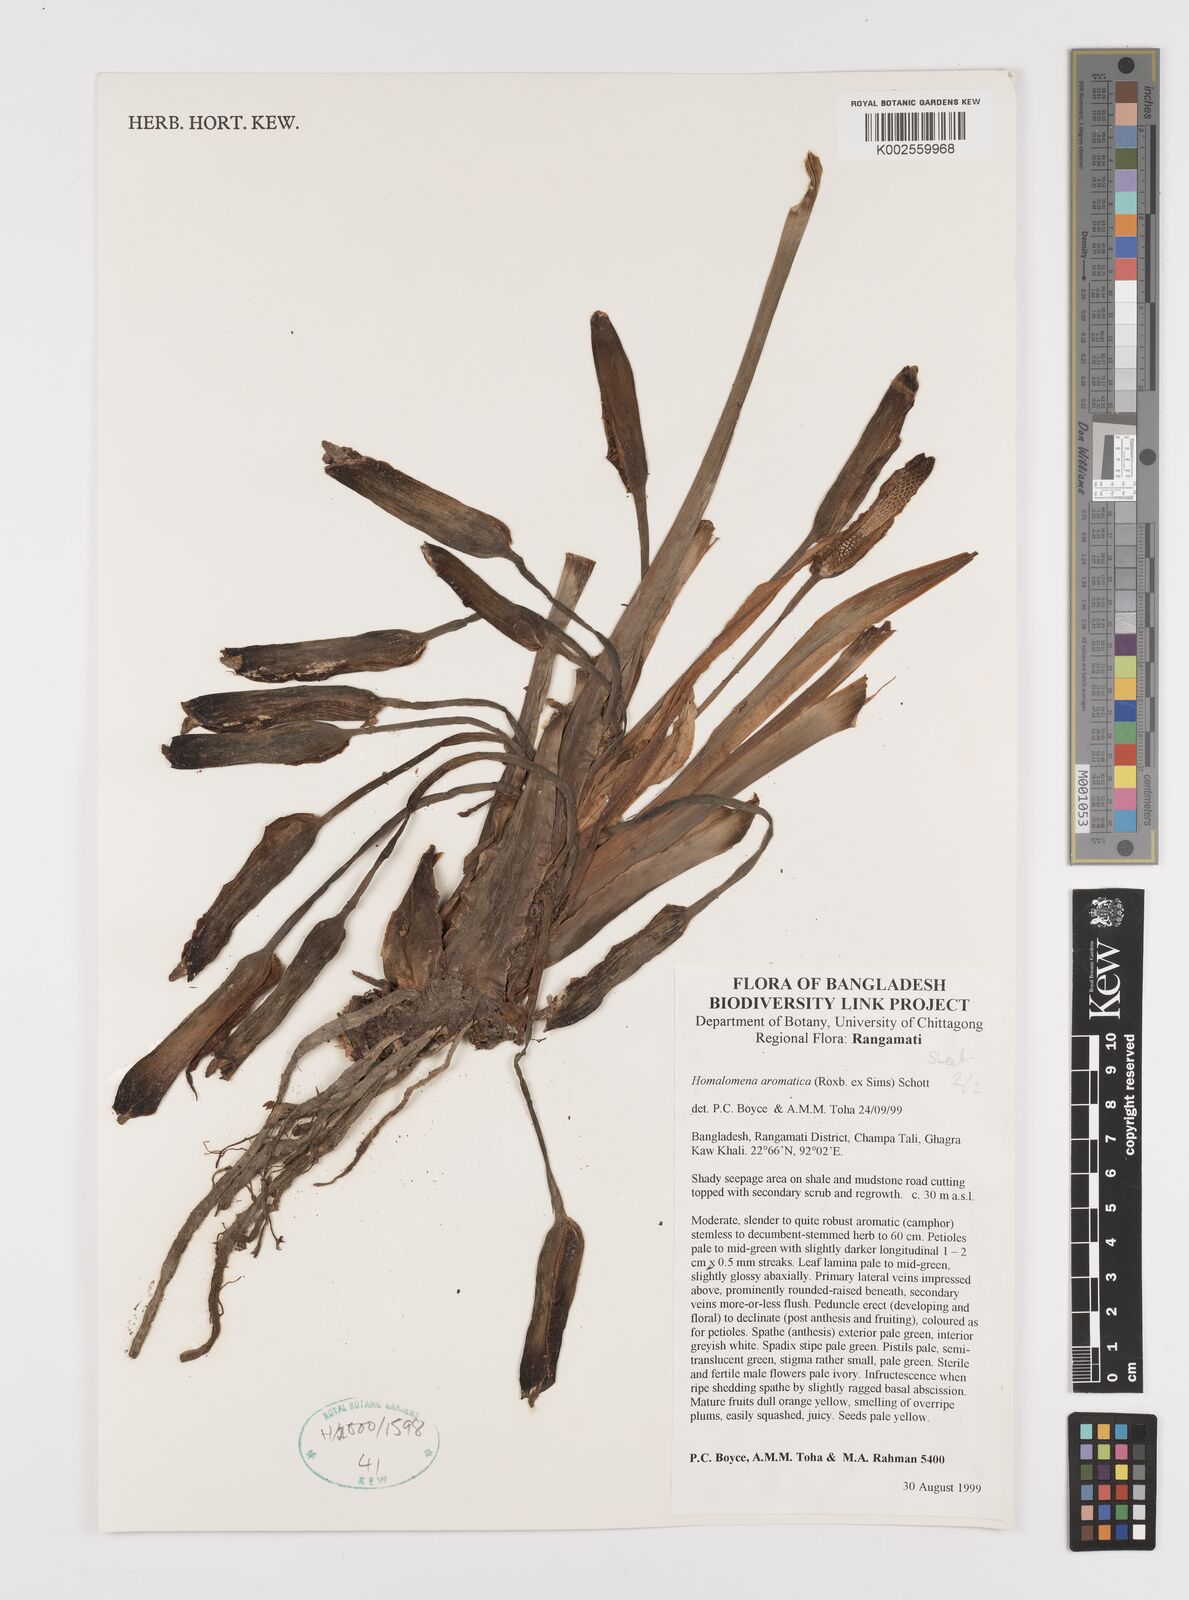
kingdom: Plantae
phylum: Tracheophyta
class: Liliopsida
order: Alismatales
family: Araceae
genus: Homalomena
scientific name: Homalomena aromatica
